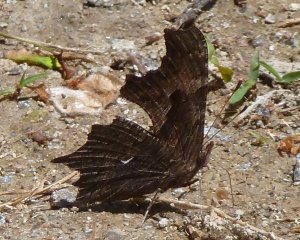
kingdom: Animalia
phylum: Arthropoda
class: Insecta
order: Lepidoptera
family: Nymphalidae
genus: Polygonia
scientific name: Polygonia progne
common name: Gray Comma
